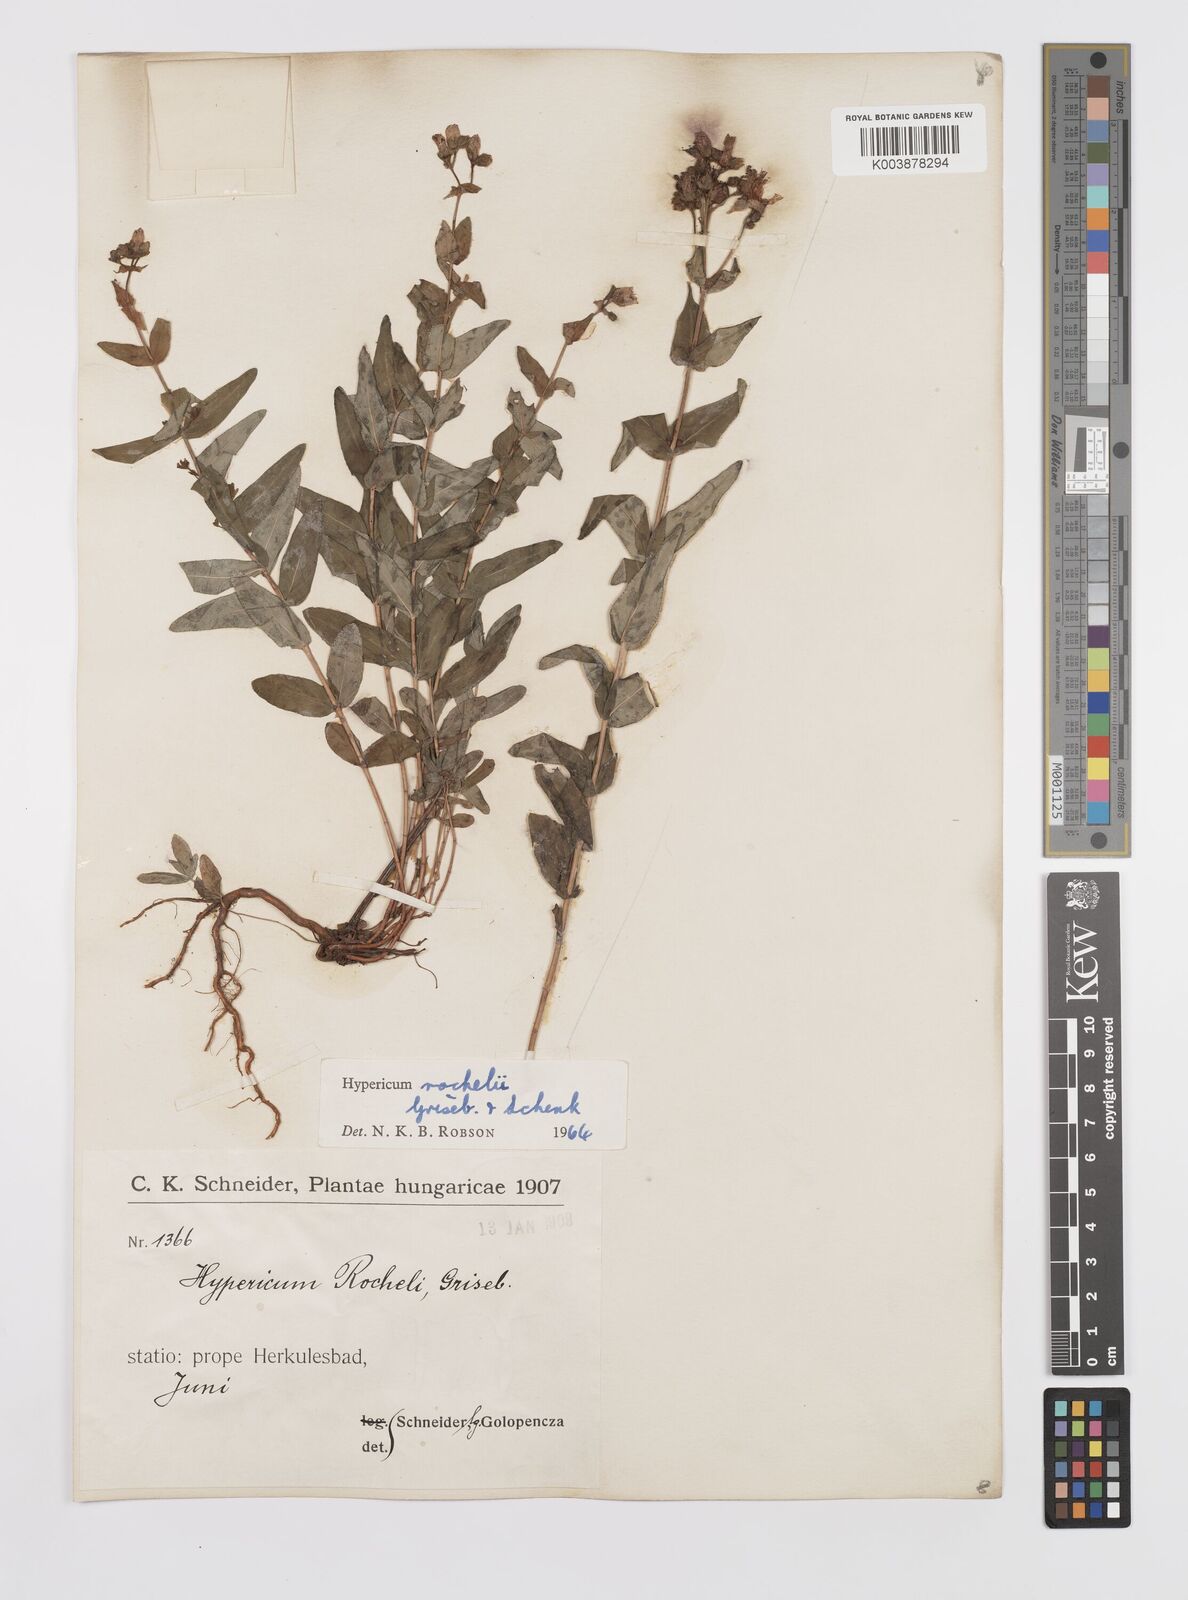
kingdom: Plantae
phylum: Tracheophyta
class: Magnoliopsida
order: Malpighiales
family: Hypericaceae
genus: Hypericum
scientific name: Hypericum rochelii
